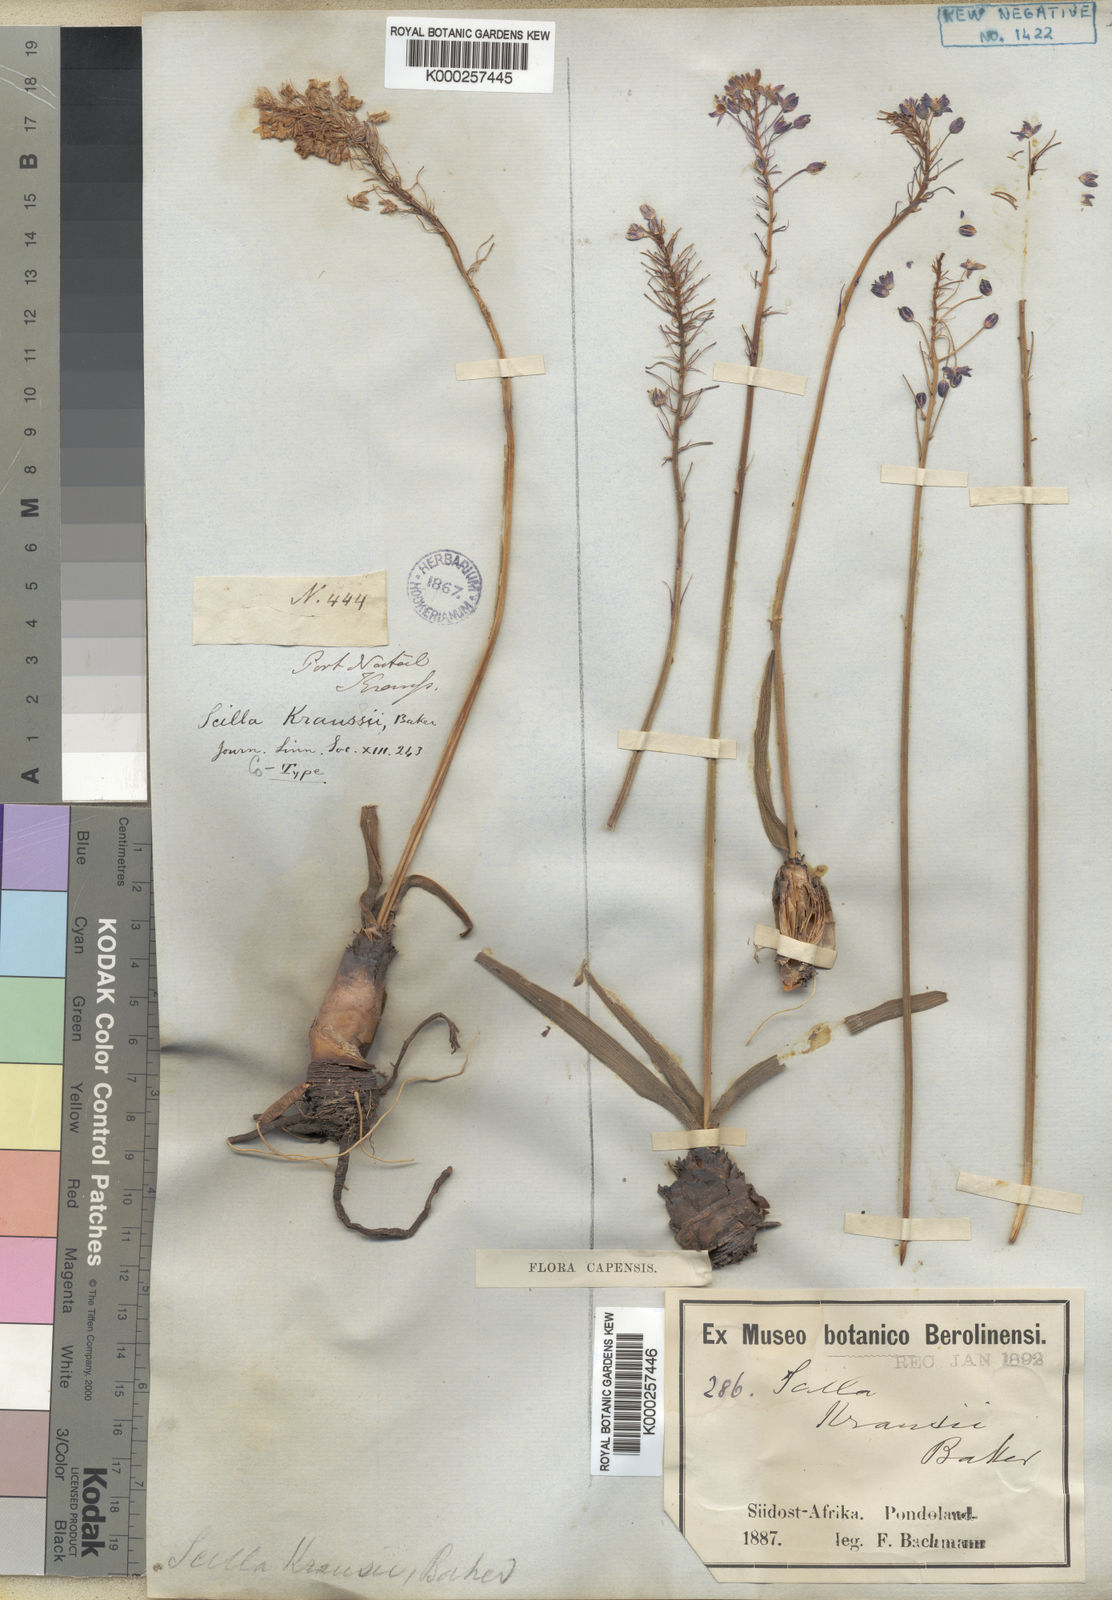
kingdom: Plantae
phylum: Tracheophyta
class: Liliopsida
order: Asparagales
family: Asparagaceae
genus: Merwilla
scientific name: Merwilla plumbea
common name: Blue-squill
